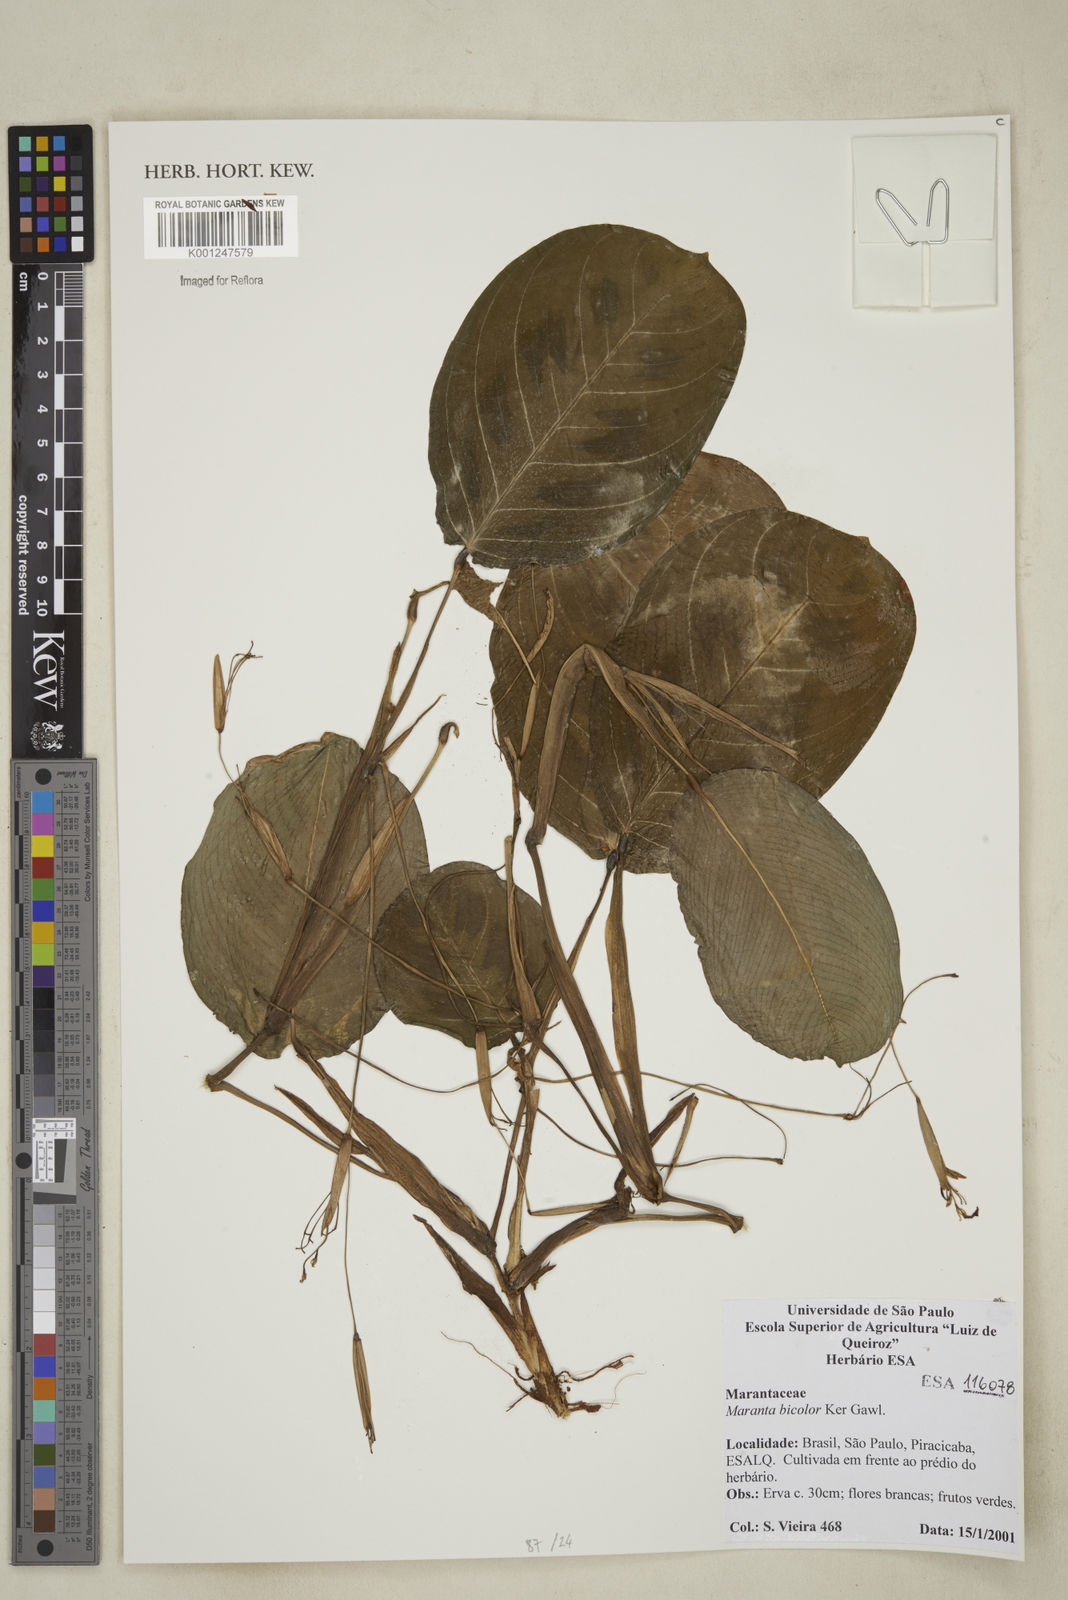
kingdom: Plantae
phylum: Tracheophyta
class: Liliopsida
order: Zingiberales
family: Marantaceae
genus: Maranta
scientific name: Maranta cristata
